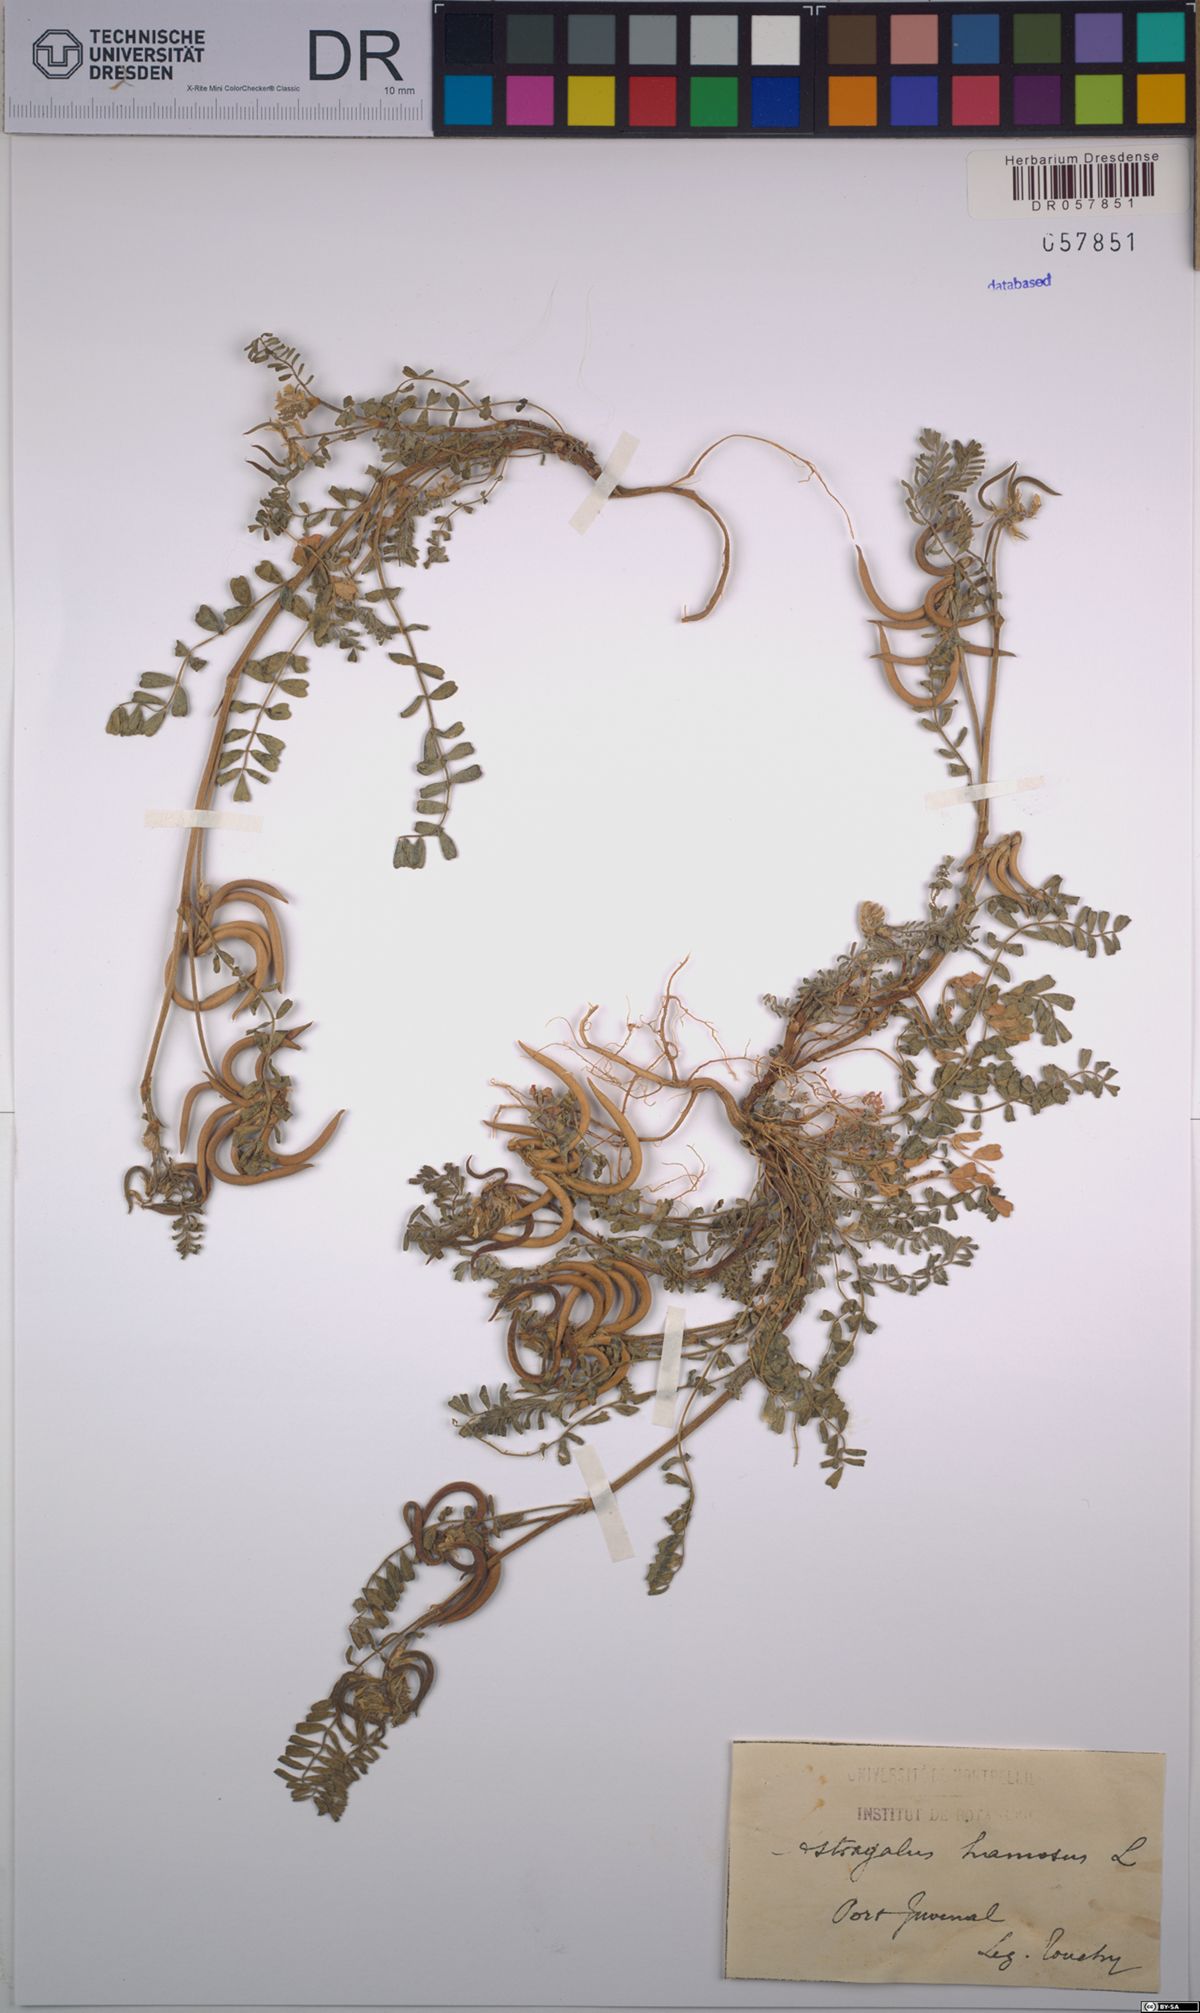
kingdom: Plantae
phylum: Tracheophyta
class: Magnoliopsida
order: Fabales
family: Fabaceae
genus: Astragalus
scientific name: Astragalus hamosus
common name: European milkvetch
